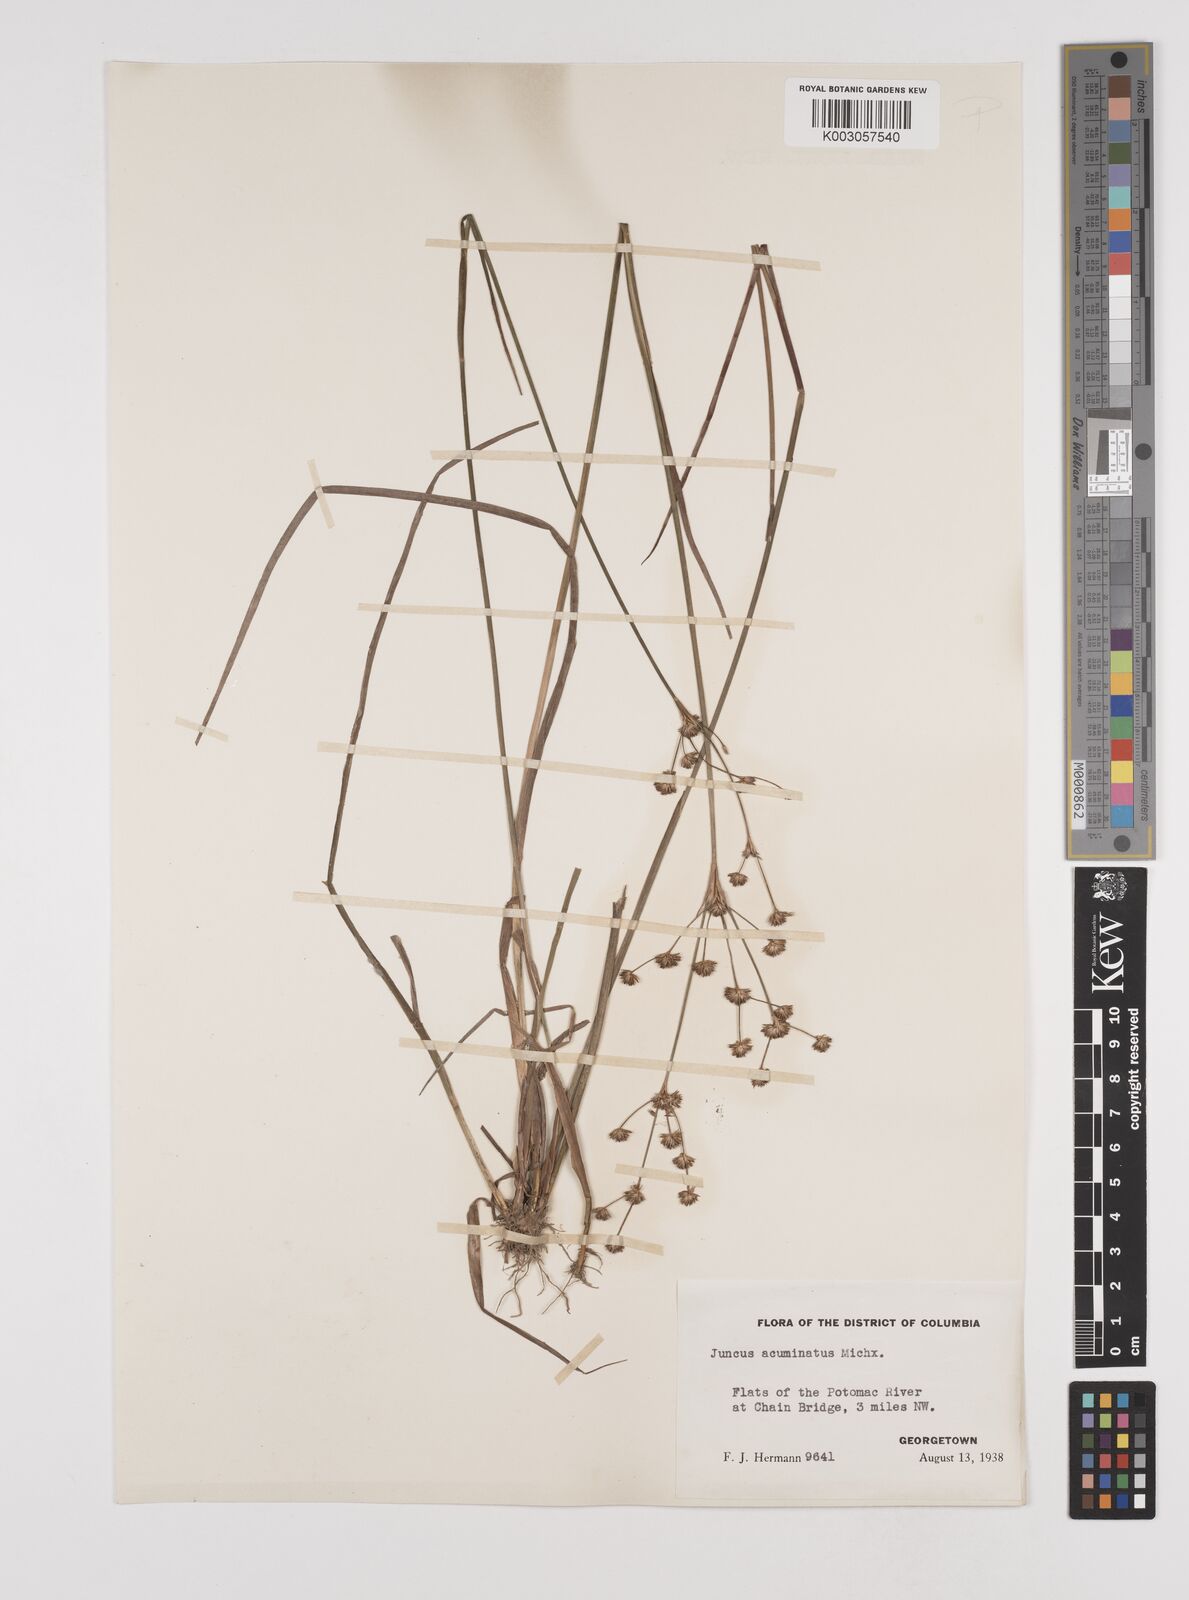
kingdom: Plantae
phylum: Tracheophyta
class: Liliopsida
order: Poales
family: Juncaceae
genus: Juncus
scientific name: Juncus acuminatus
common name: Knotty-leaved rush
